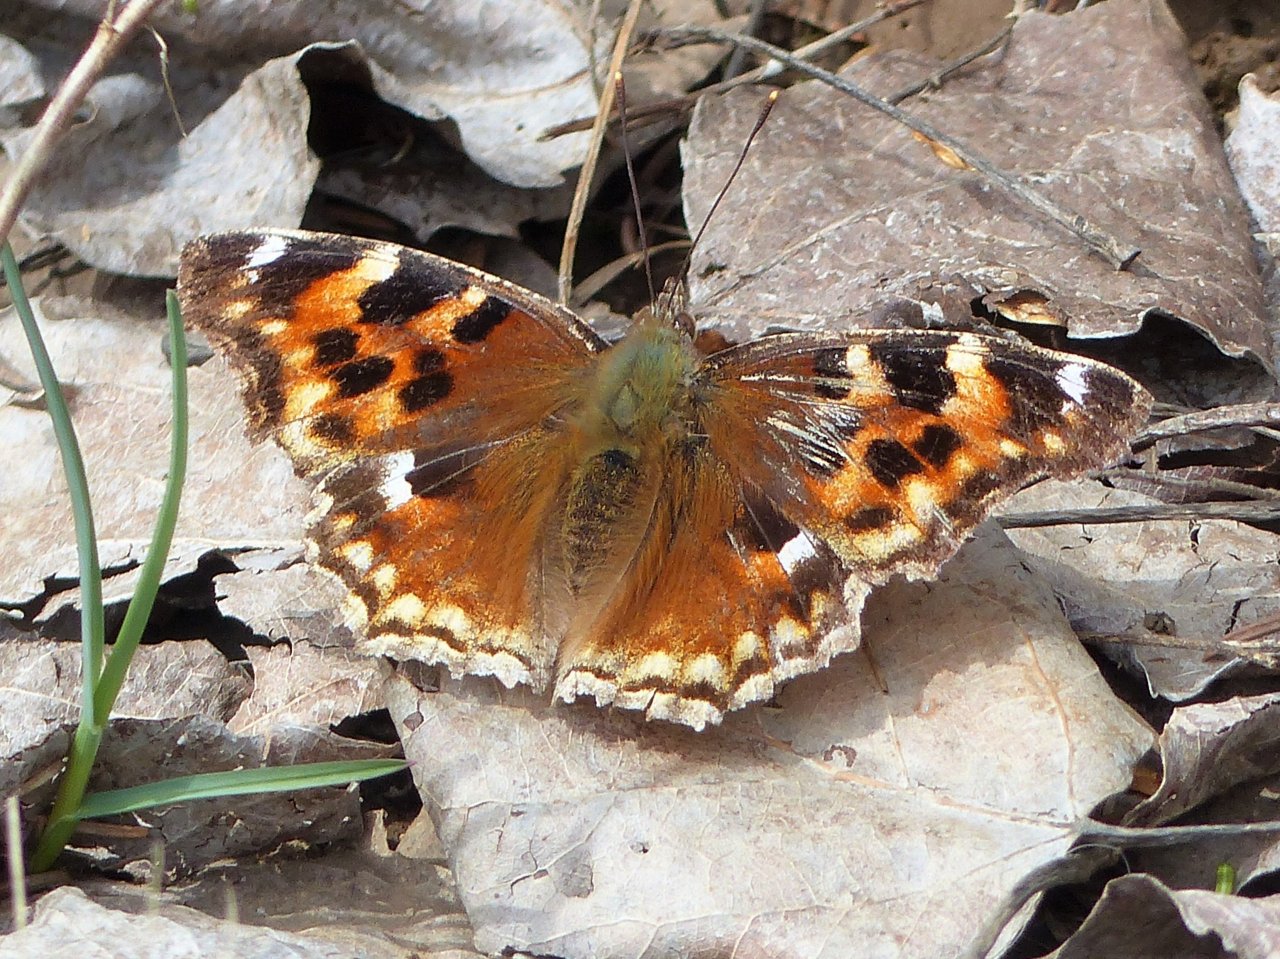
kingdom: Animalia
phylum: Arthropoda
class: Insecta
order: Lepidoptera
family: Nymphalidae
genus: Polygonia
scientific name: Polygonia vaualbum
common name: Compton Tortoiseshell
